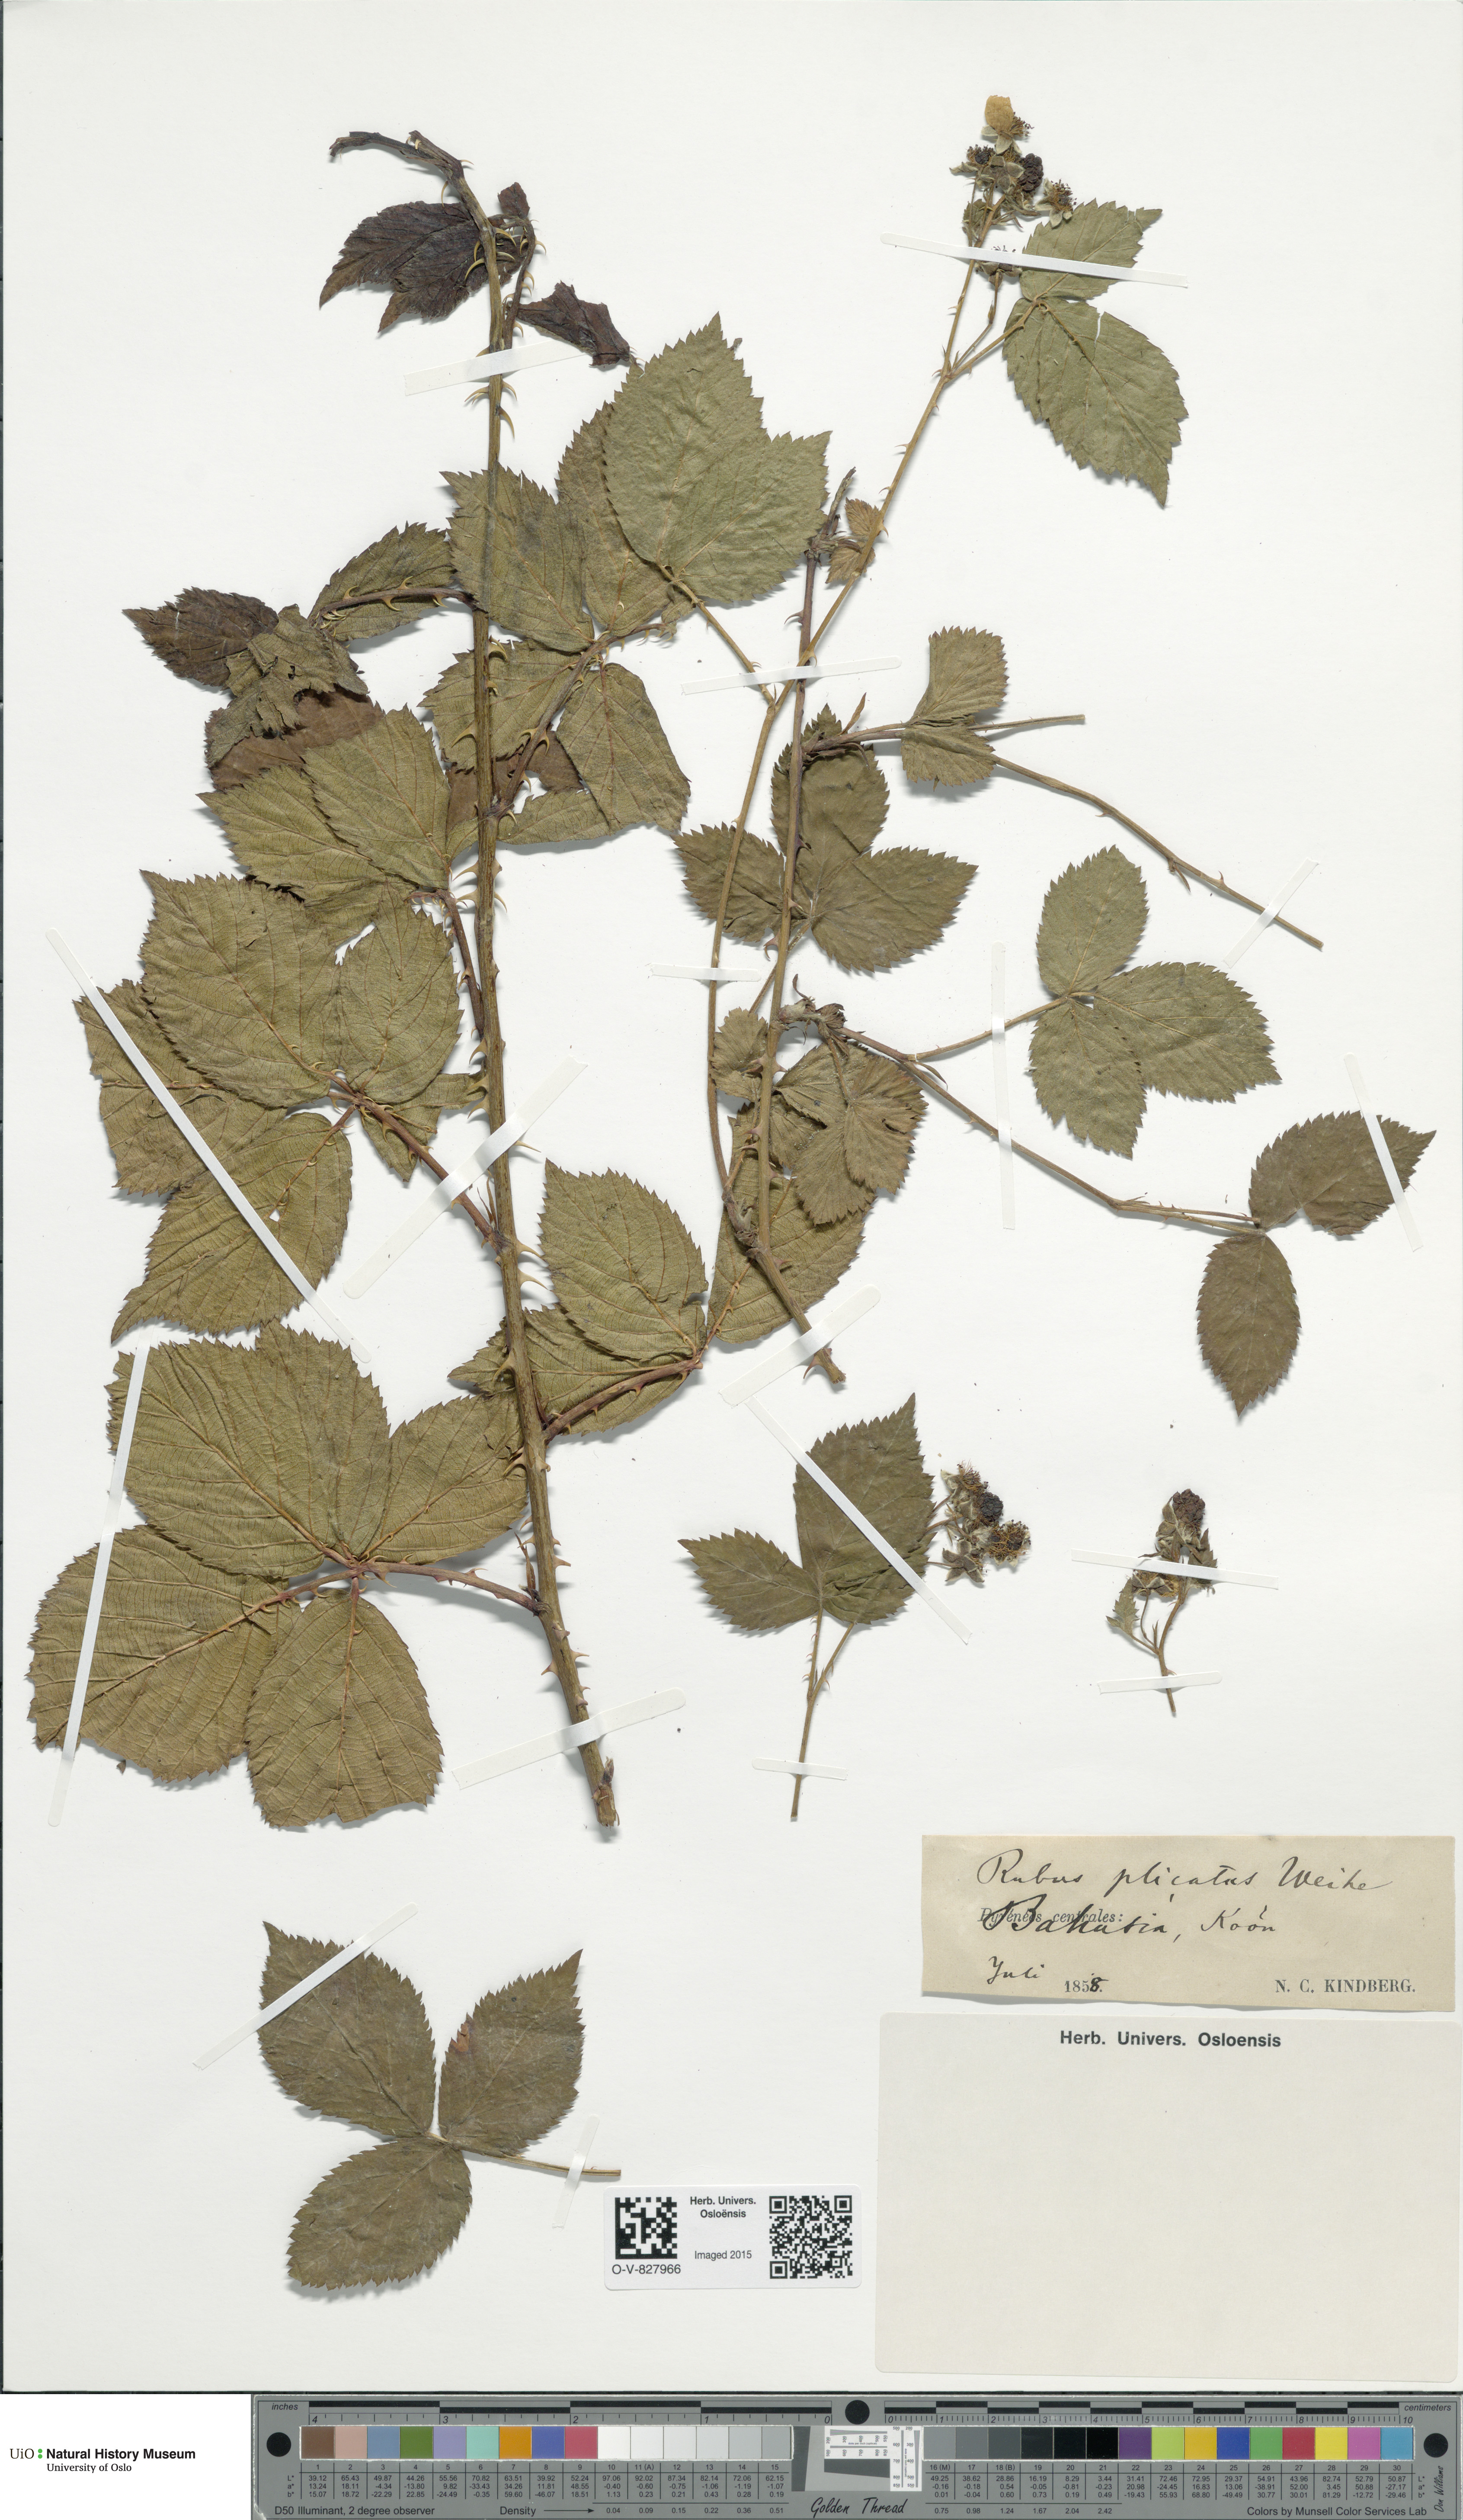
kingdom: Plantae
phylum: Tracheophyta
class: Magnoliopsida
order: Rosales
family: Rosaceae
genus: Rubus
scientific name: Rubus fruticosus
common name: Blackberry, bramble
